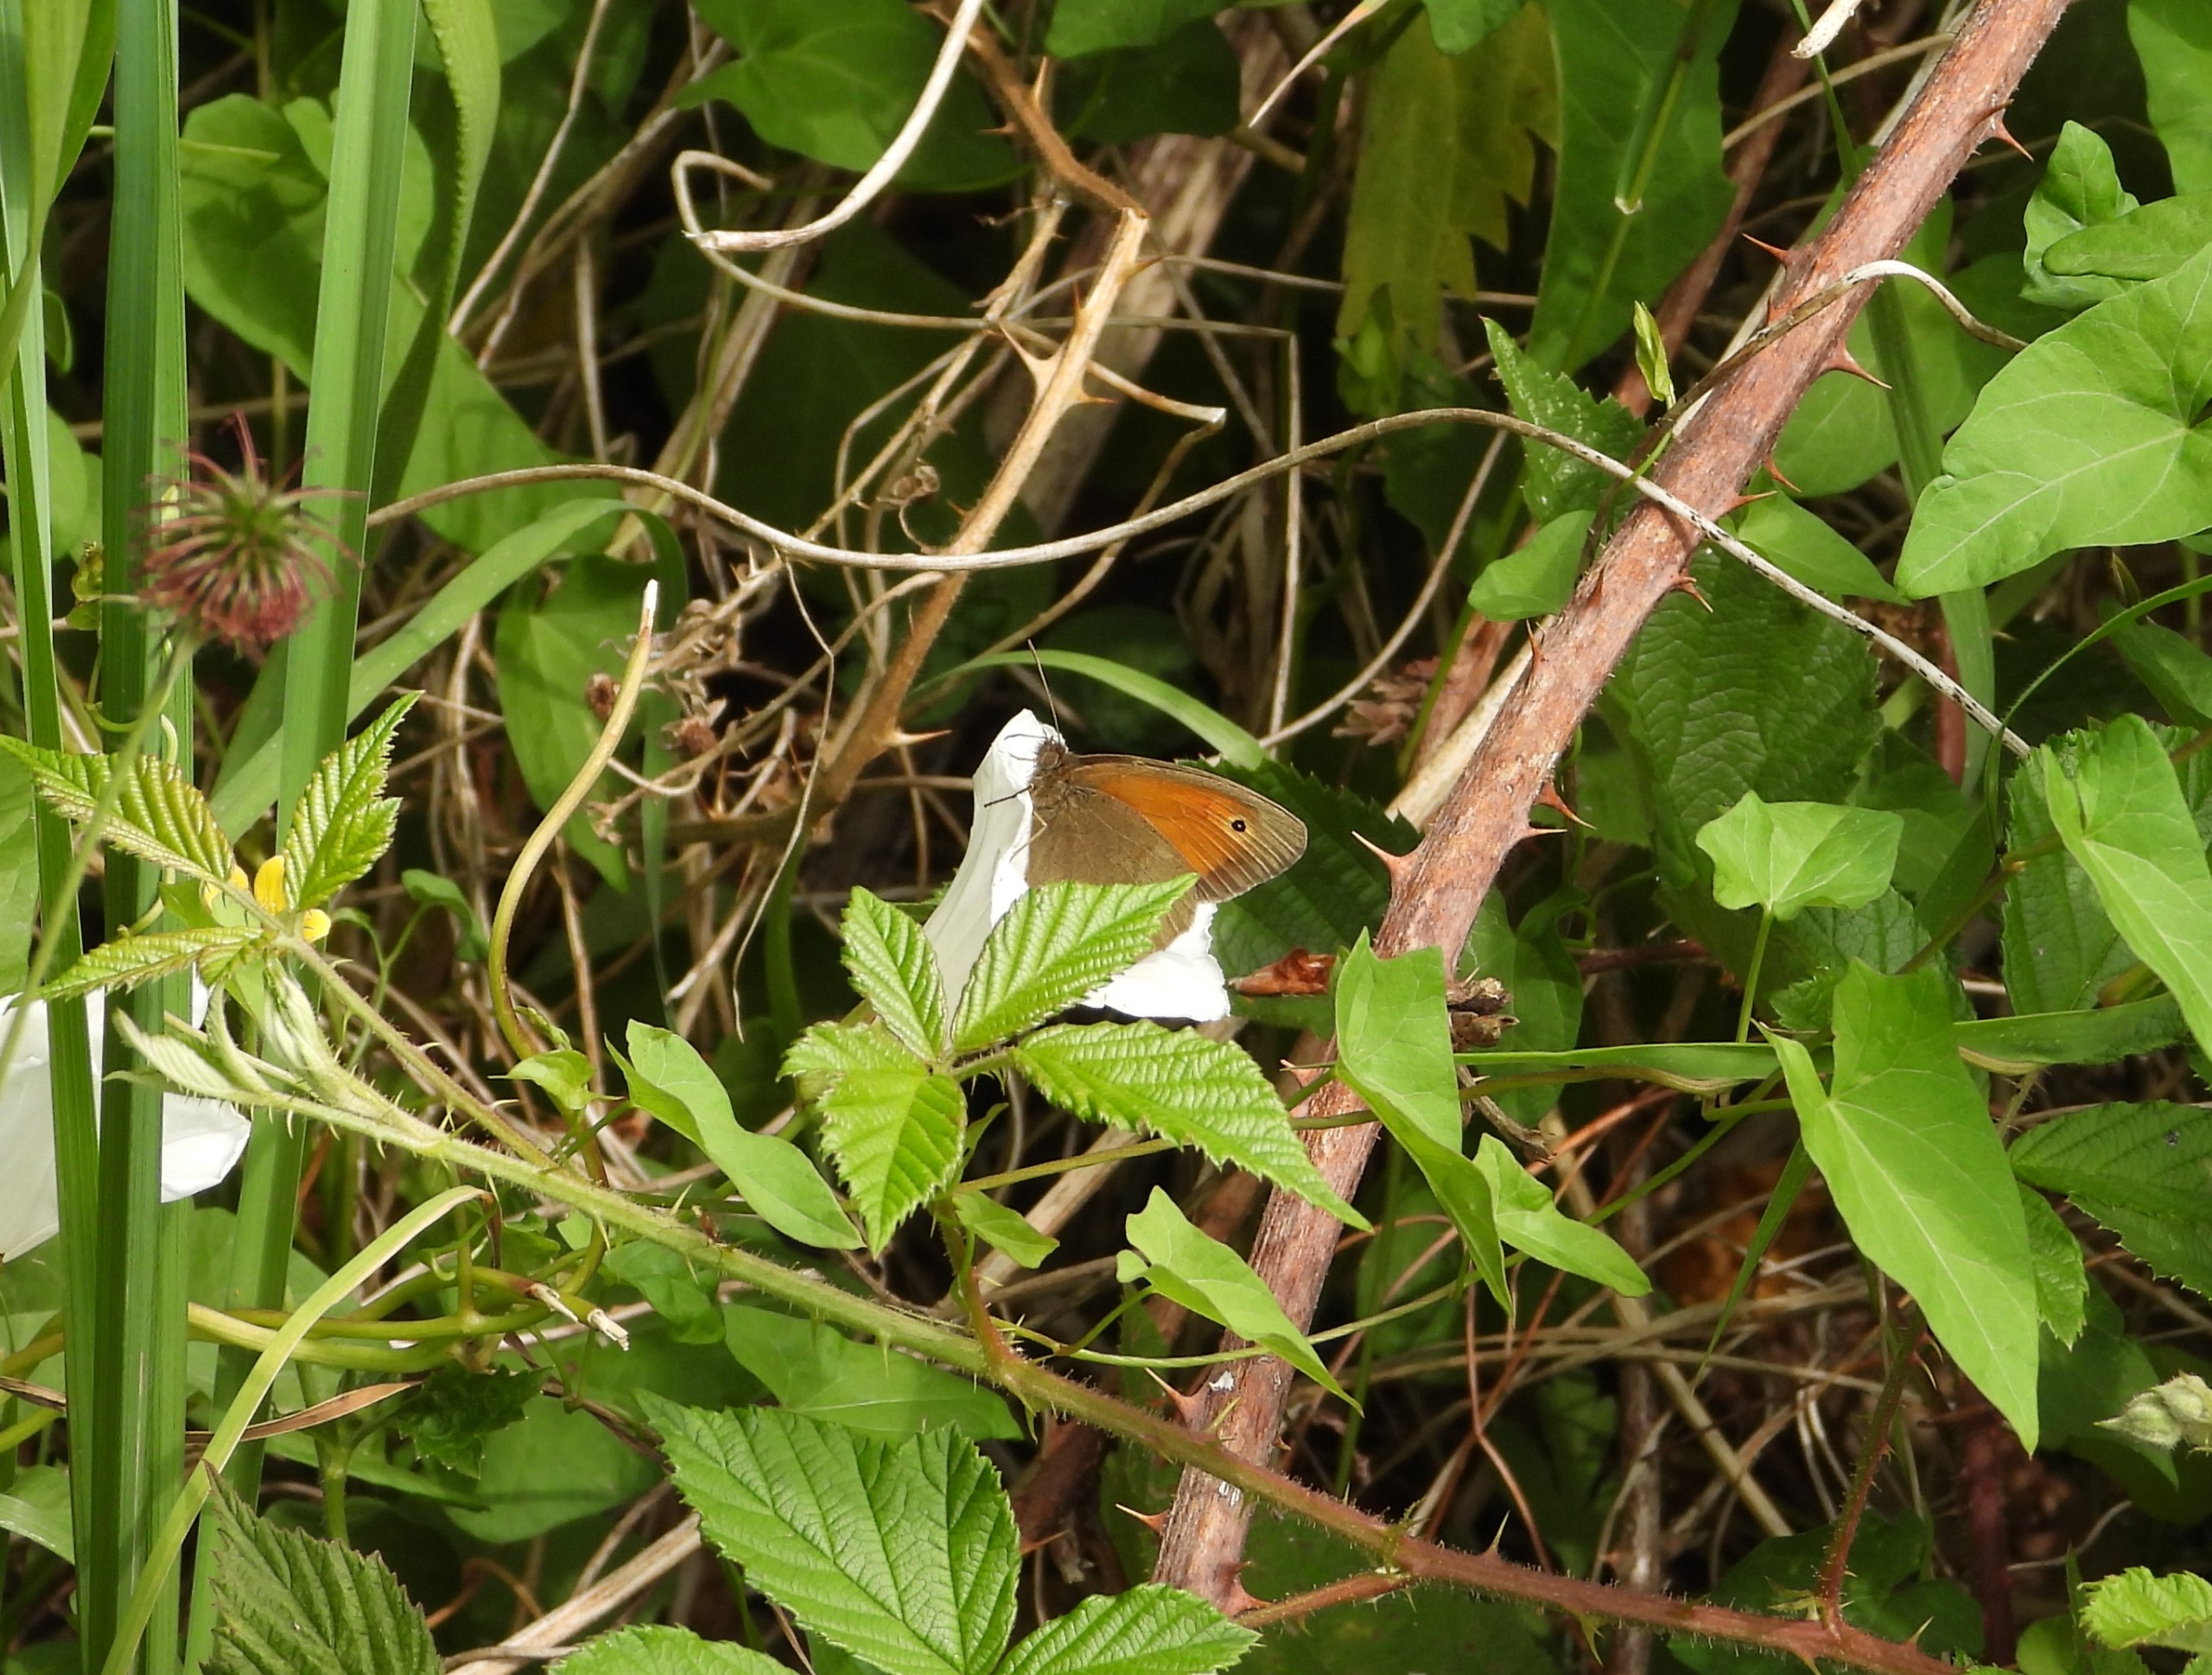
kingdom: Animalia
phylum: Arthropoda
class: Insecta
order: Lepidoptera
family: Nymphalidae
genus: Maniola
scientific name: Maniola jurtina
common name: Græsrandøje
